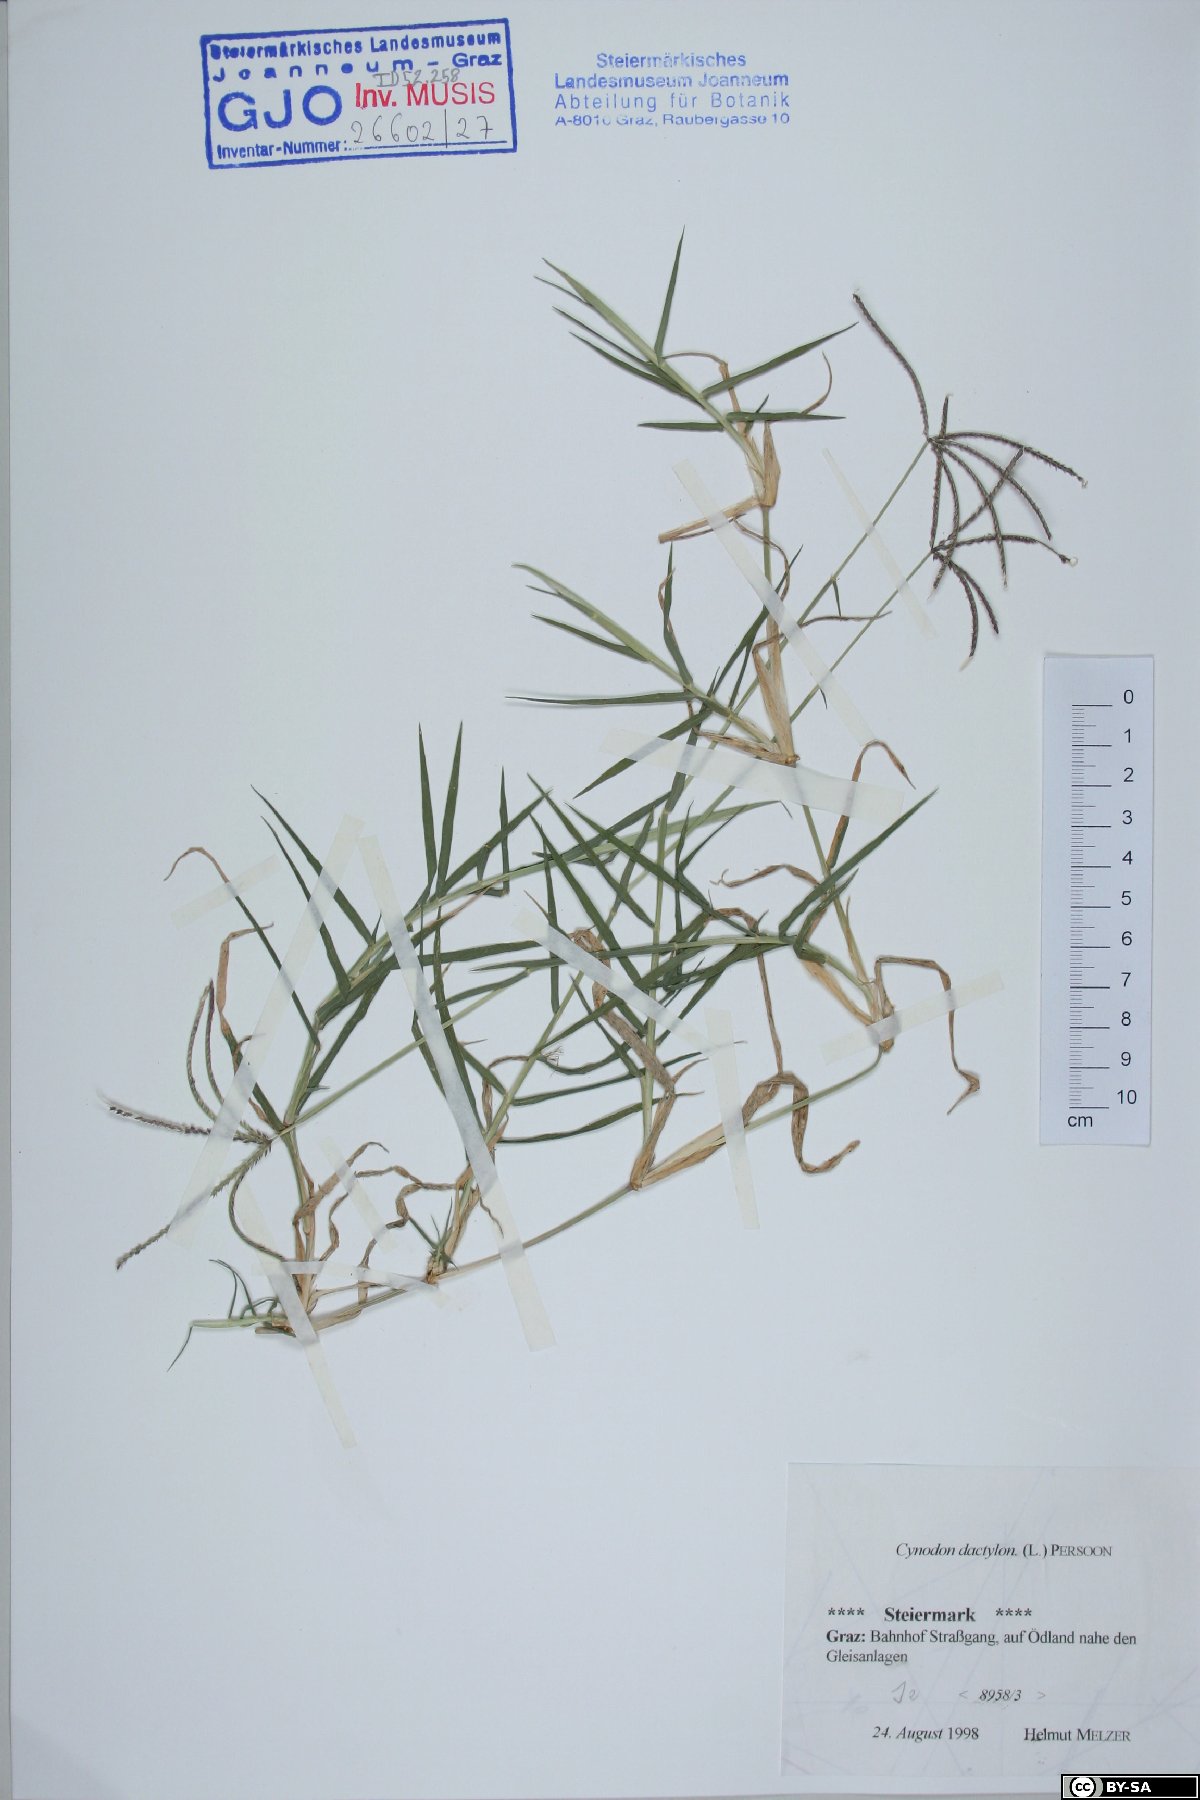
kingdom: Plantae
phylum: Tracheophyta
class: Liliopsida
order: Poales
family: Poaceae
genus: Cynodon
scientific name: Cynodon dactylon
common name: Bermuda grass
